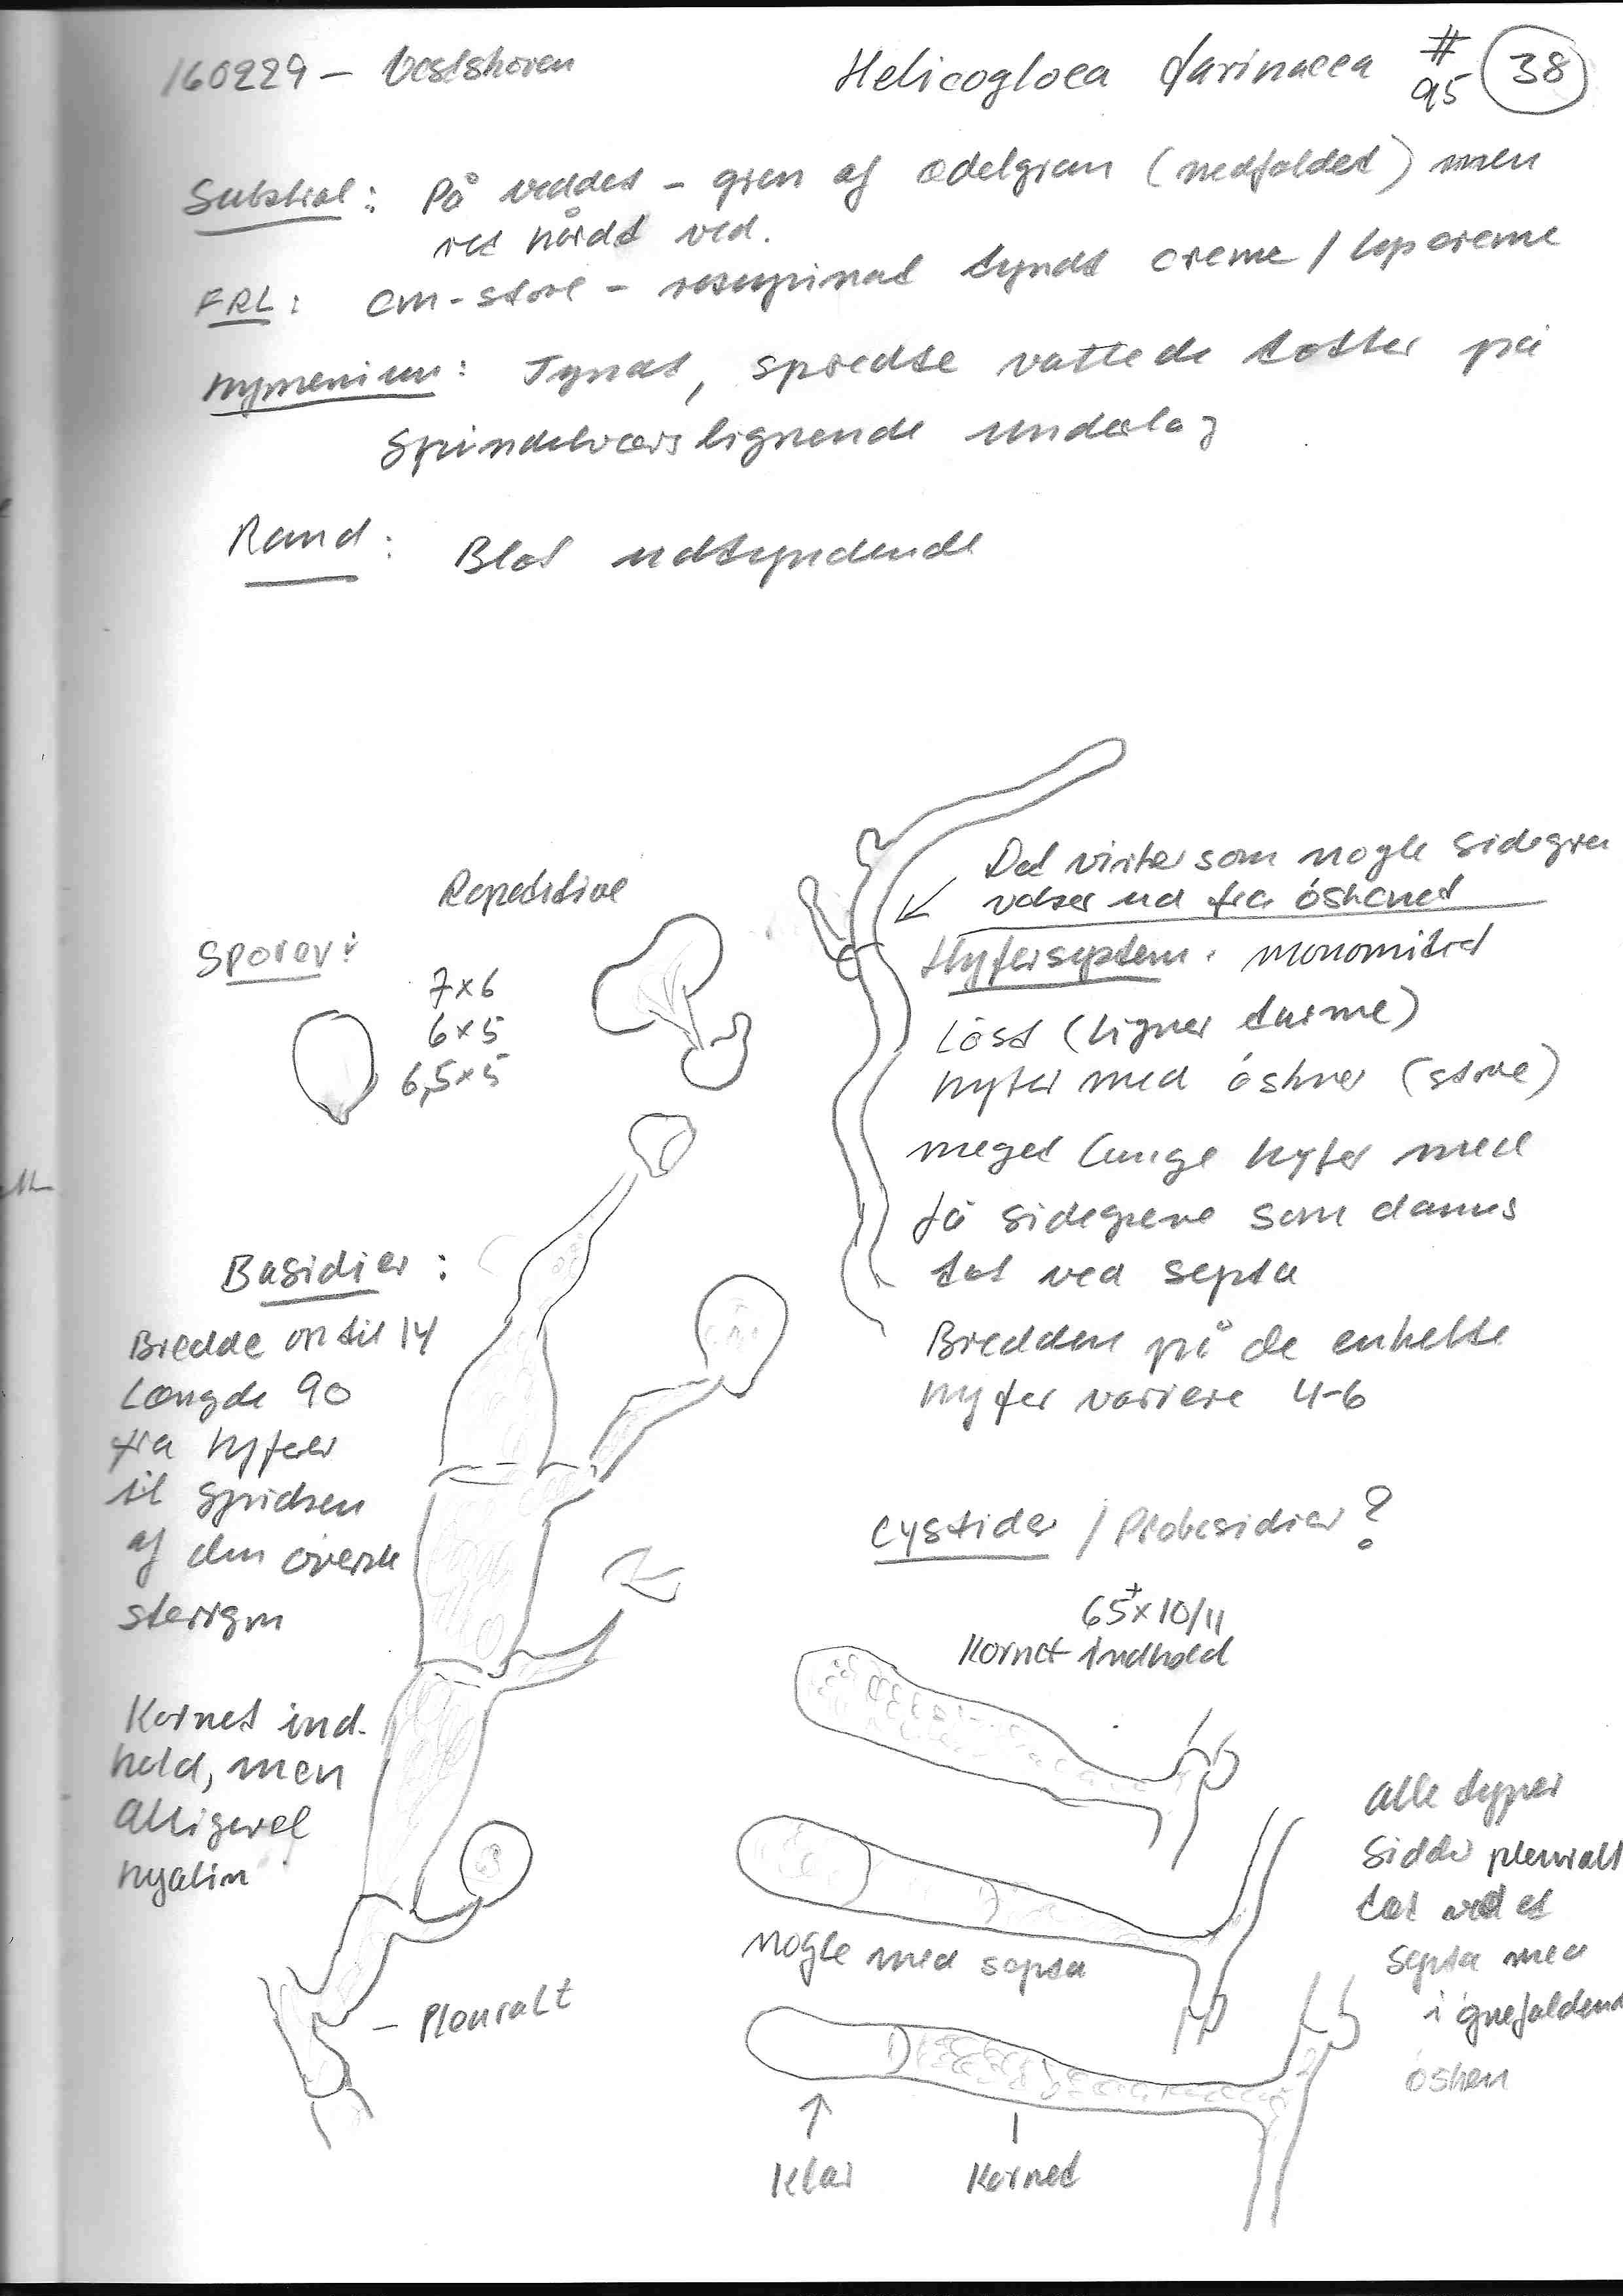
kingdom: Fungi
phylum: Basidiomycota
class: Atractiellomycetes
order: Atractiellales
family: Phleogenaceae
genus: Saccosoma
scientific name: Saccosoma farinaceum
